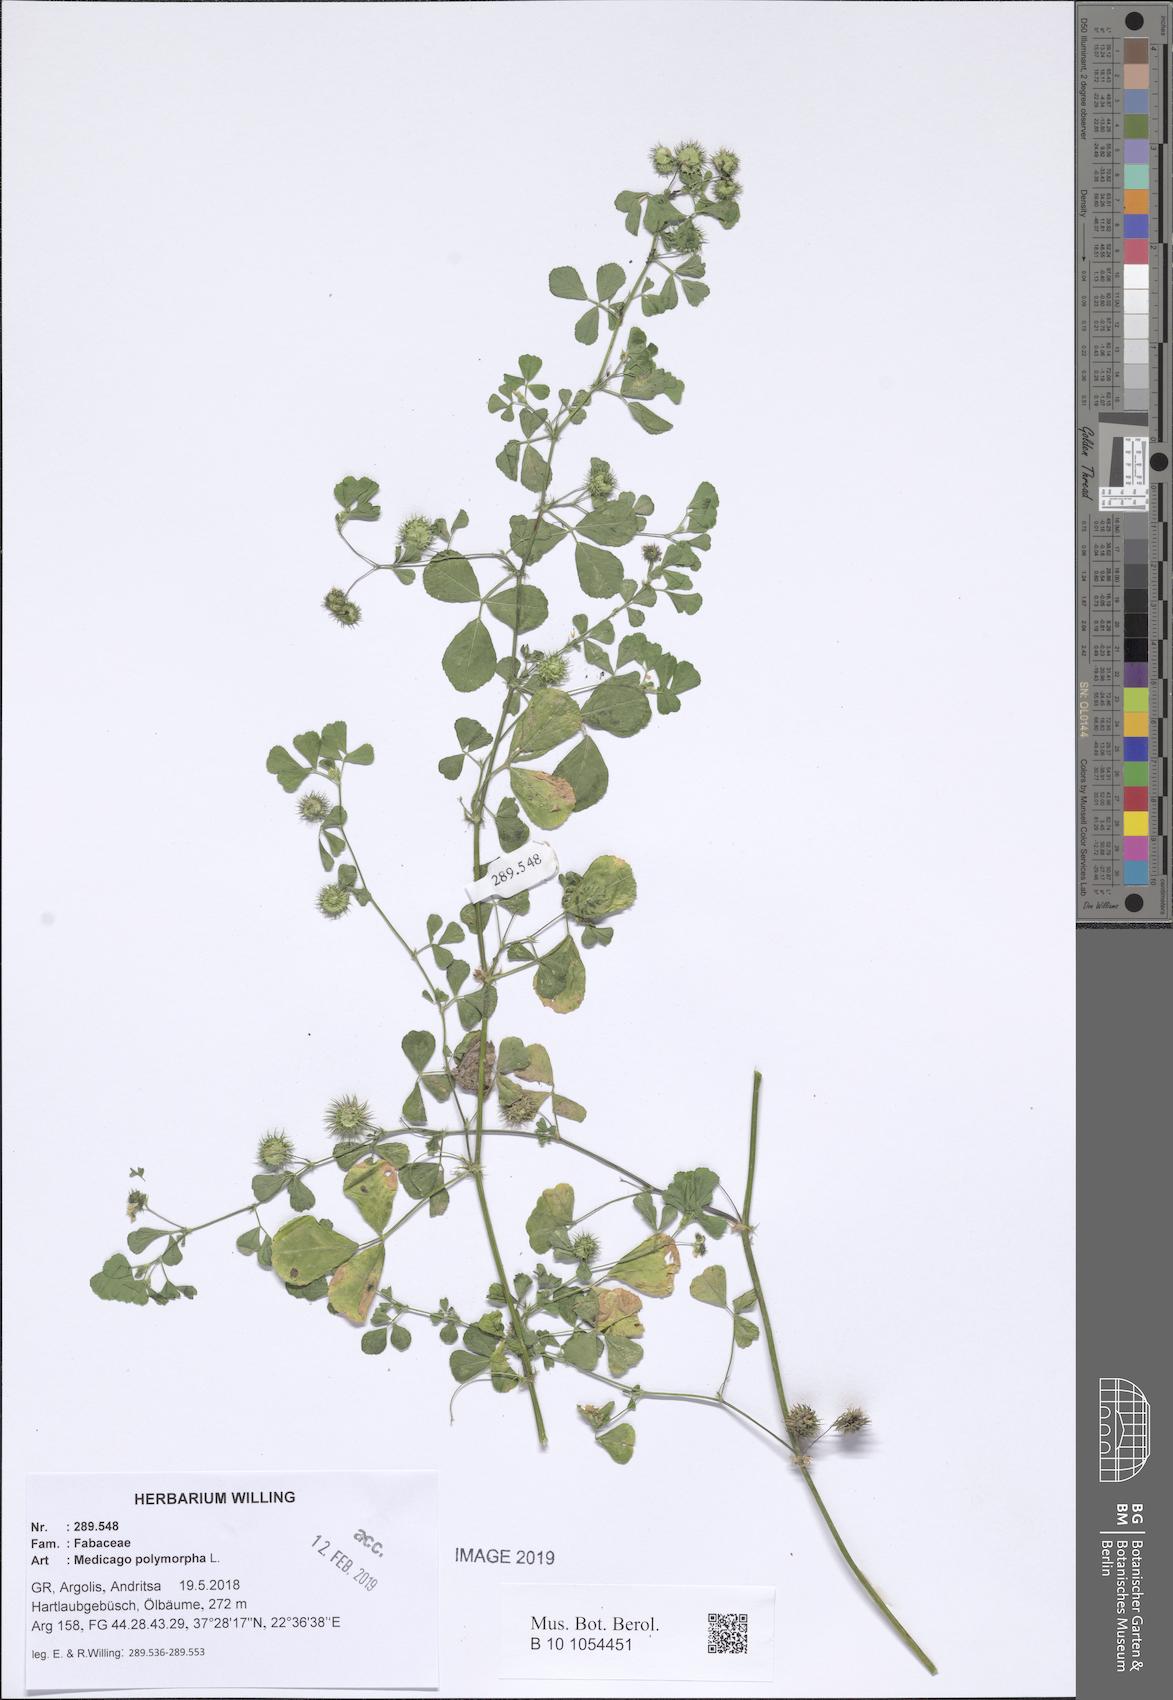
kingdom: Plantae
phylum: Tracheophyta
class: Magnoliopsida
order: Fabales
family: Fabaceae
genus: Medicago
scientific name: Medicago polymorpha
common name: Burclover
